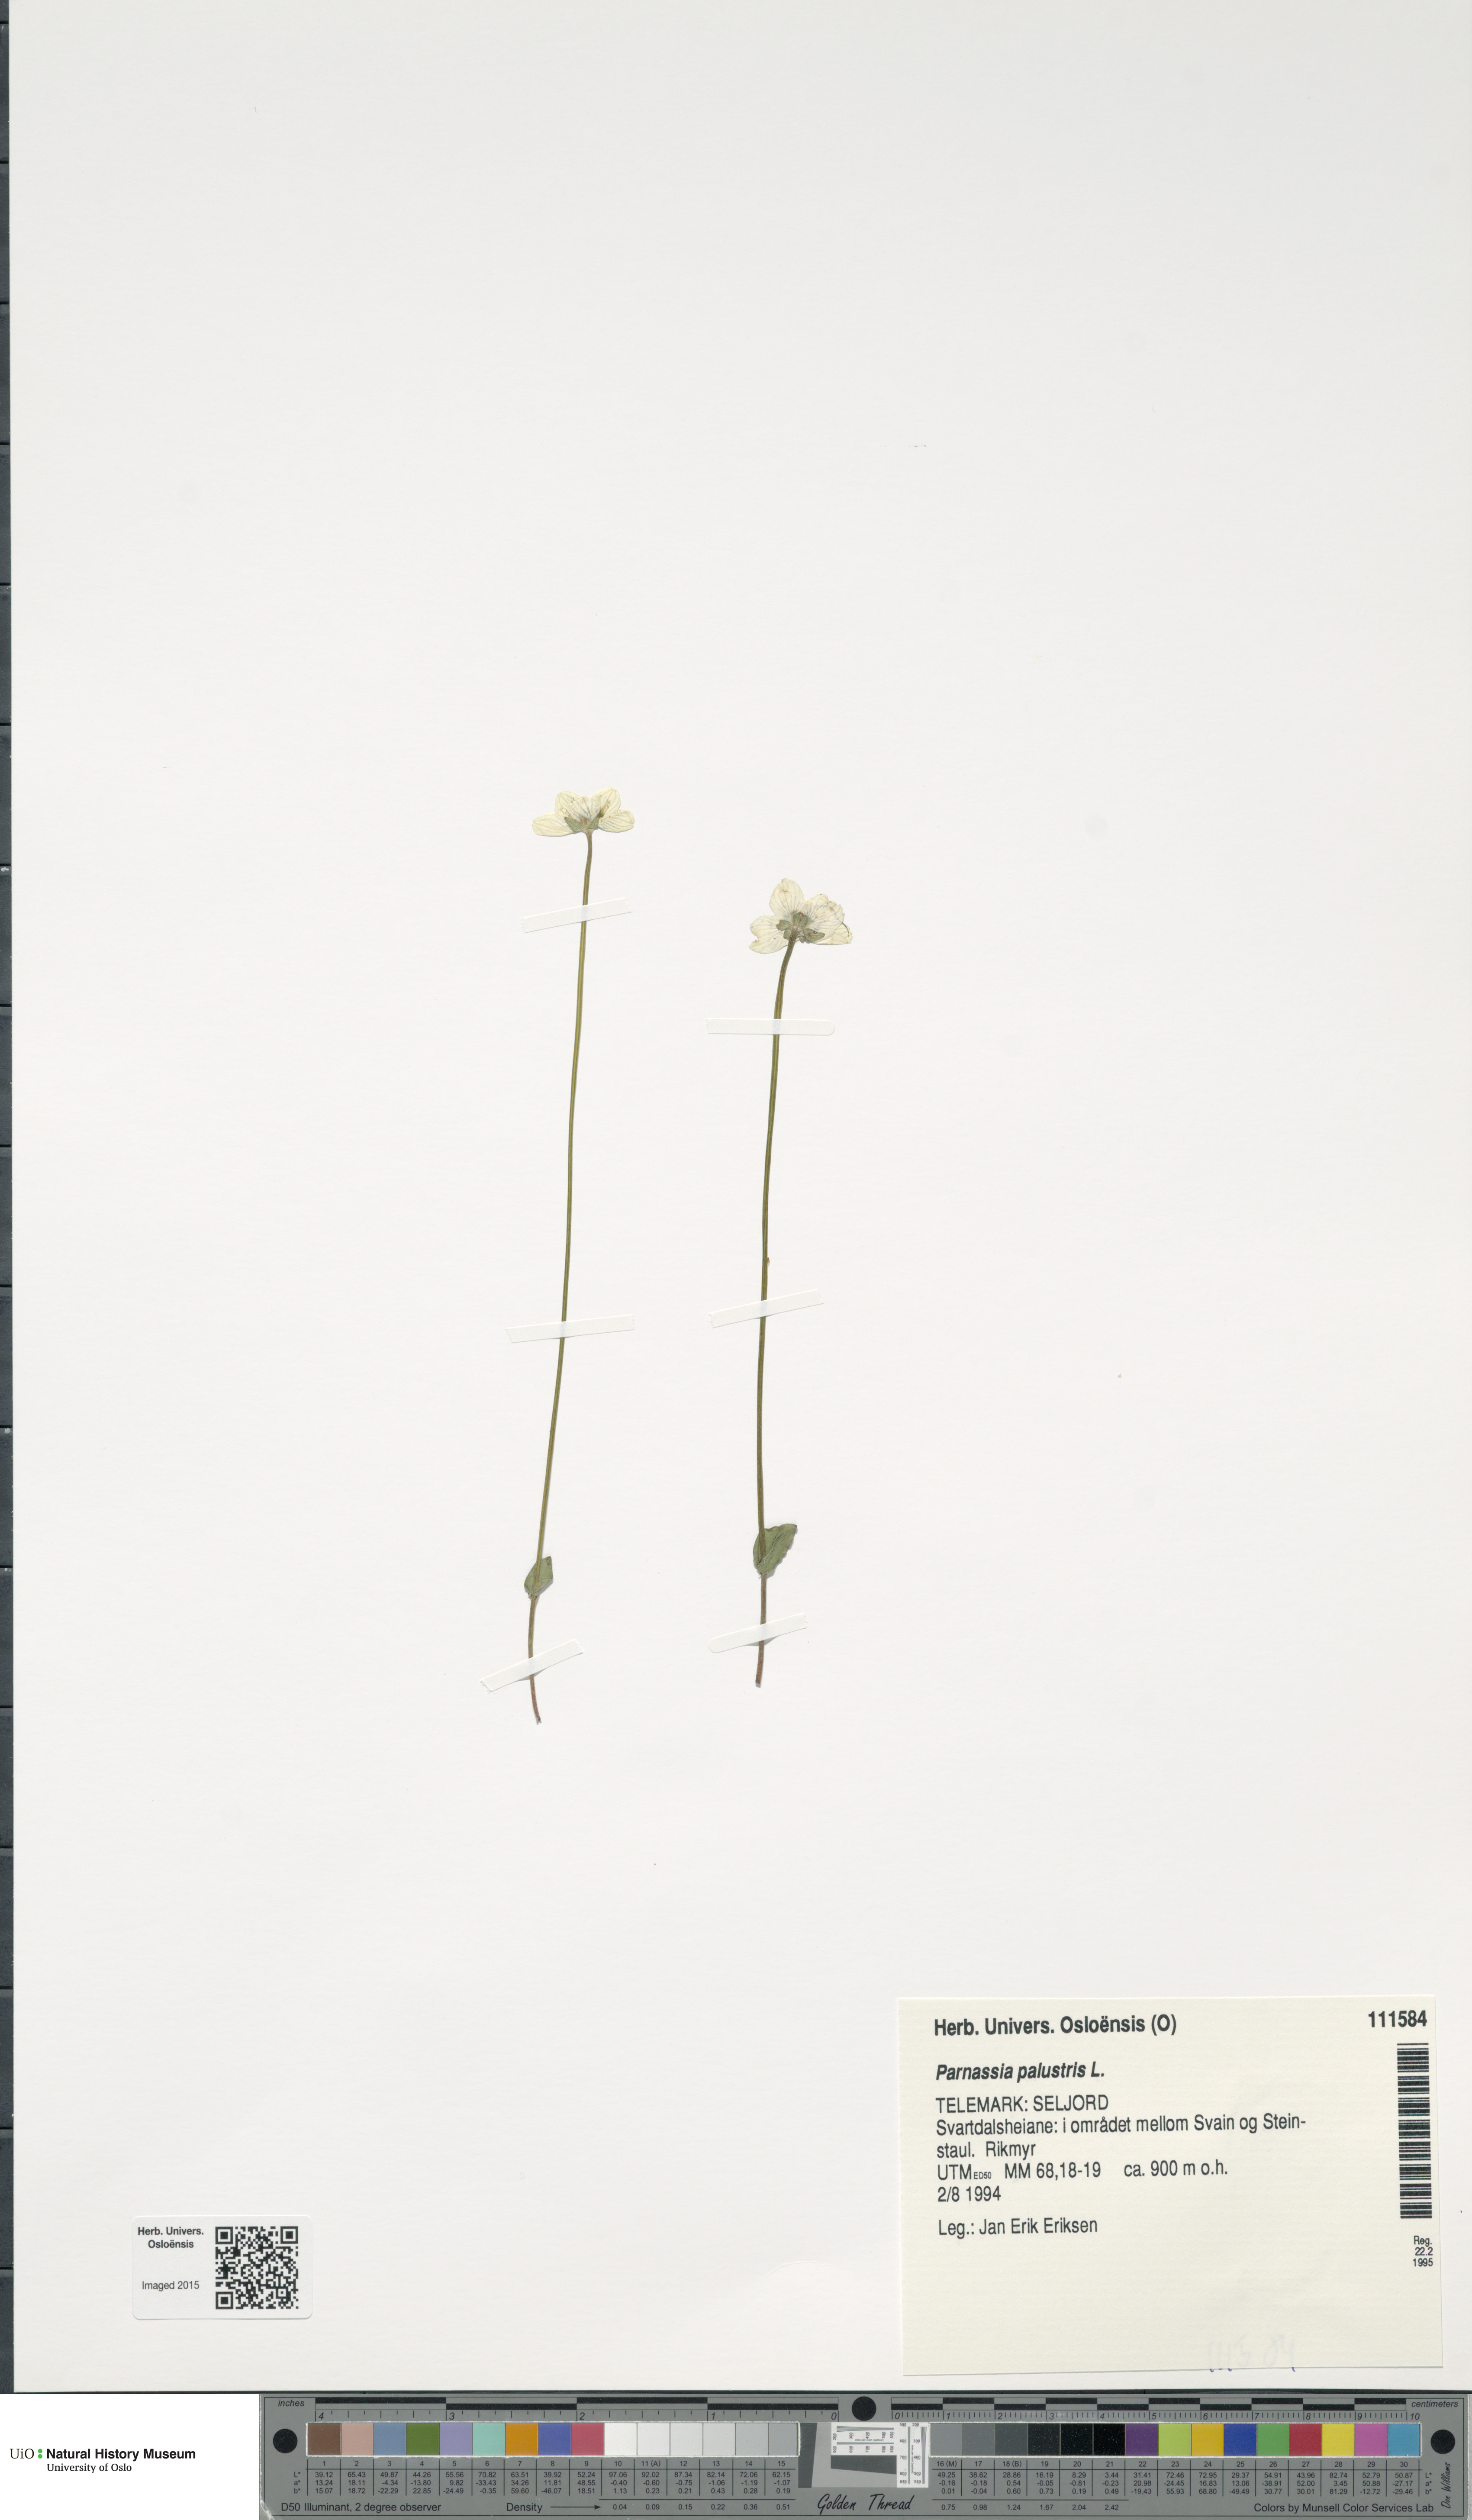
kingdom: Plantae
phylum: Tracheophyta
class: Magnoliopsida
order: Celastrales
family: Parnassiaceae
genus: Parnassia
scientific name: Parnassia palustris
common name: Grass-of-parnassus
